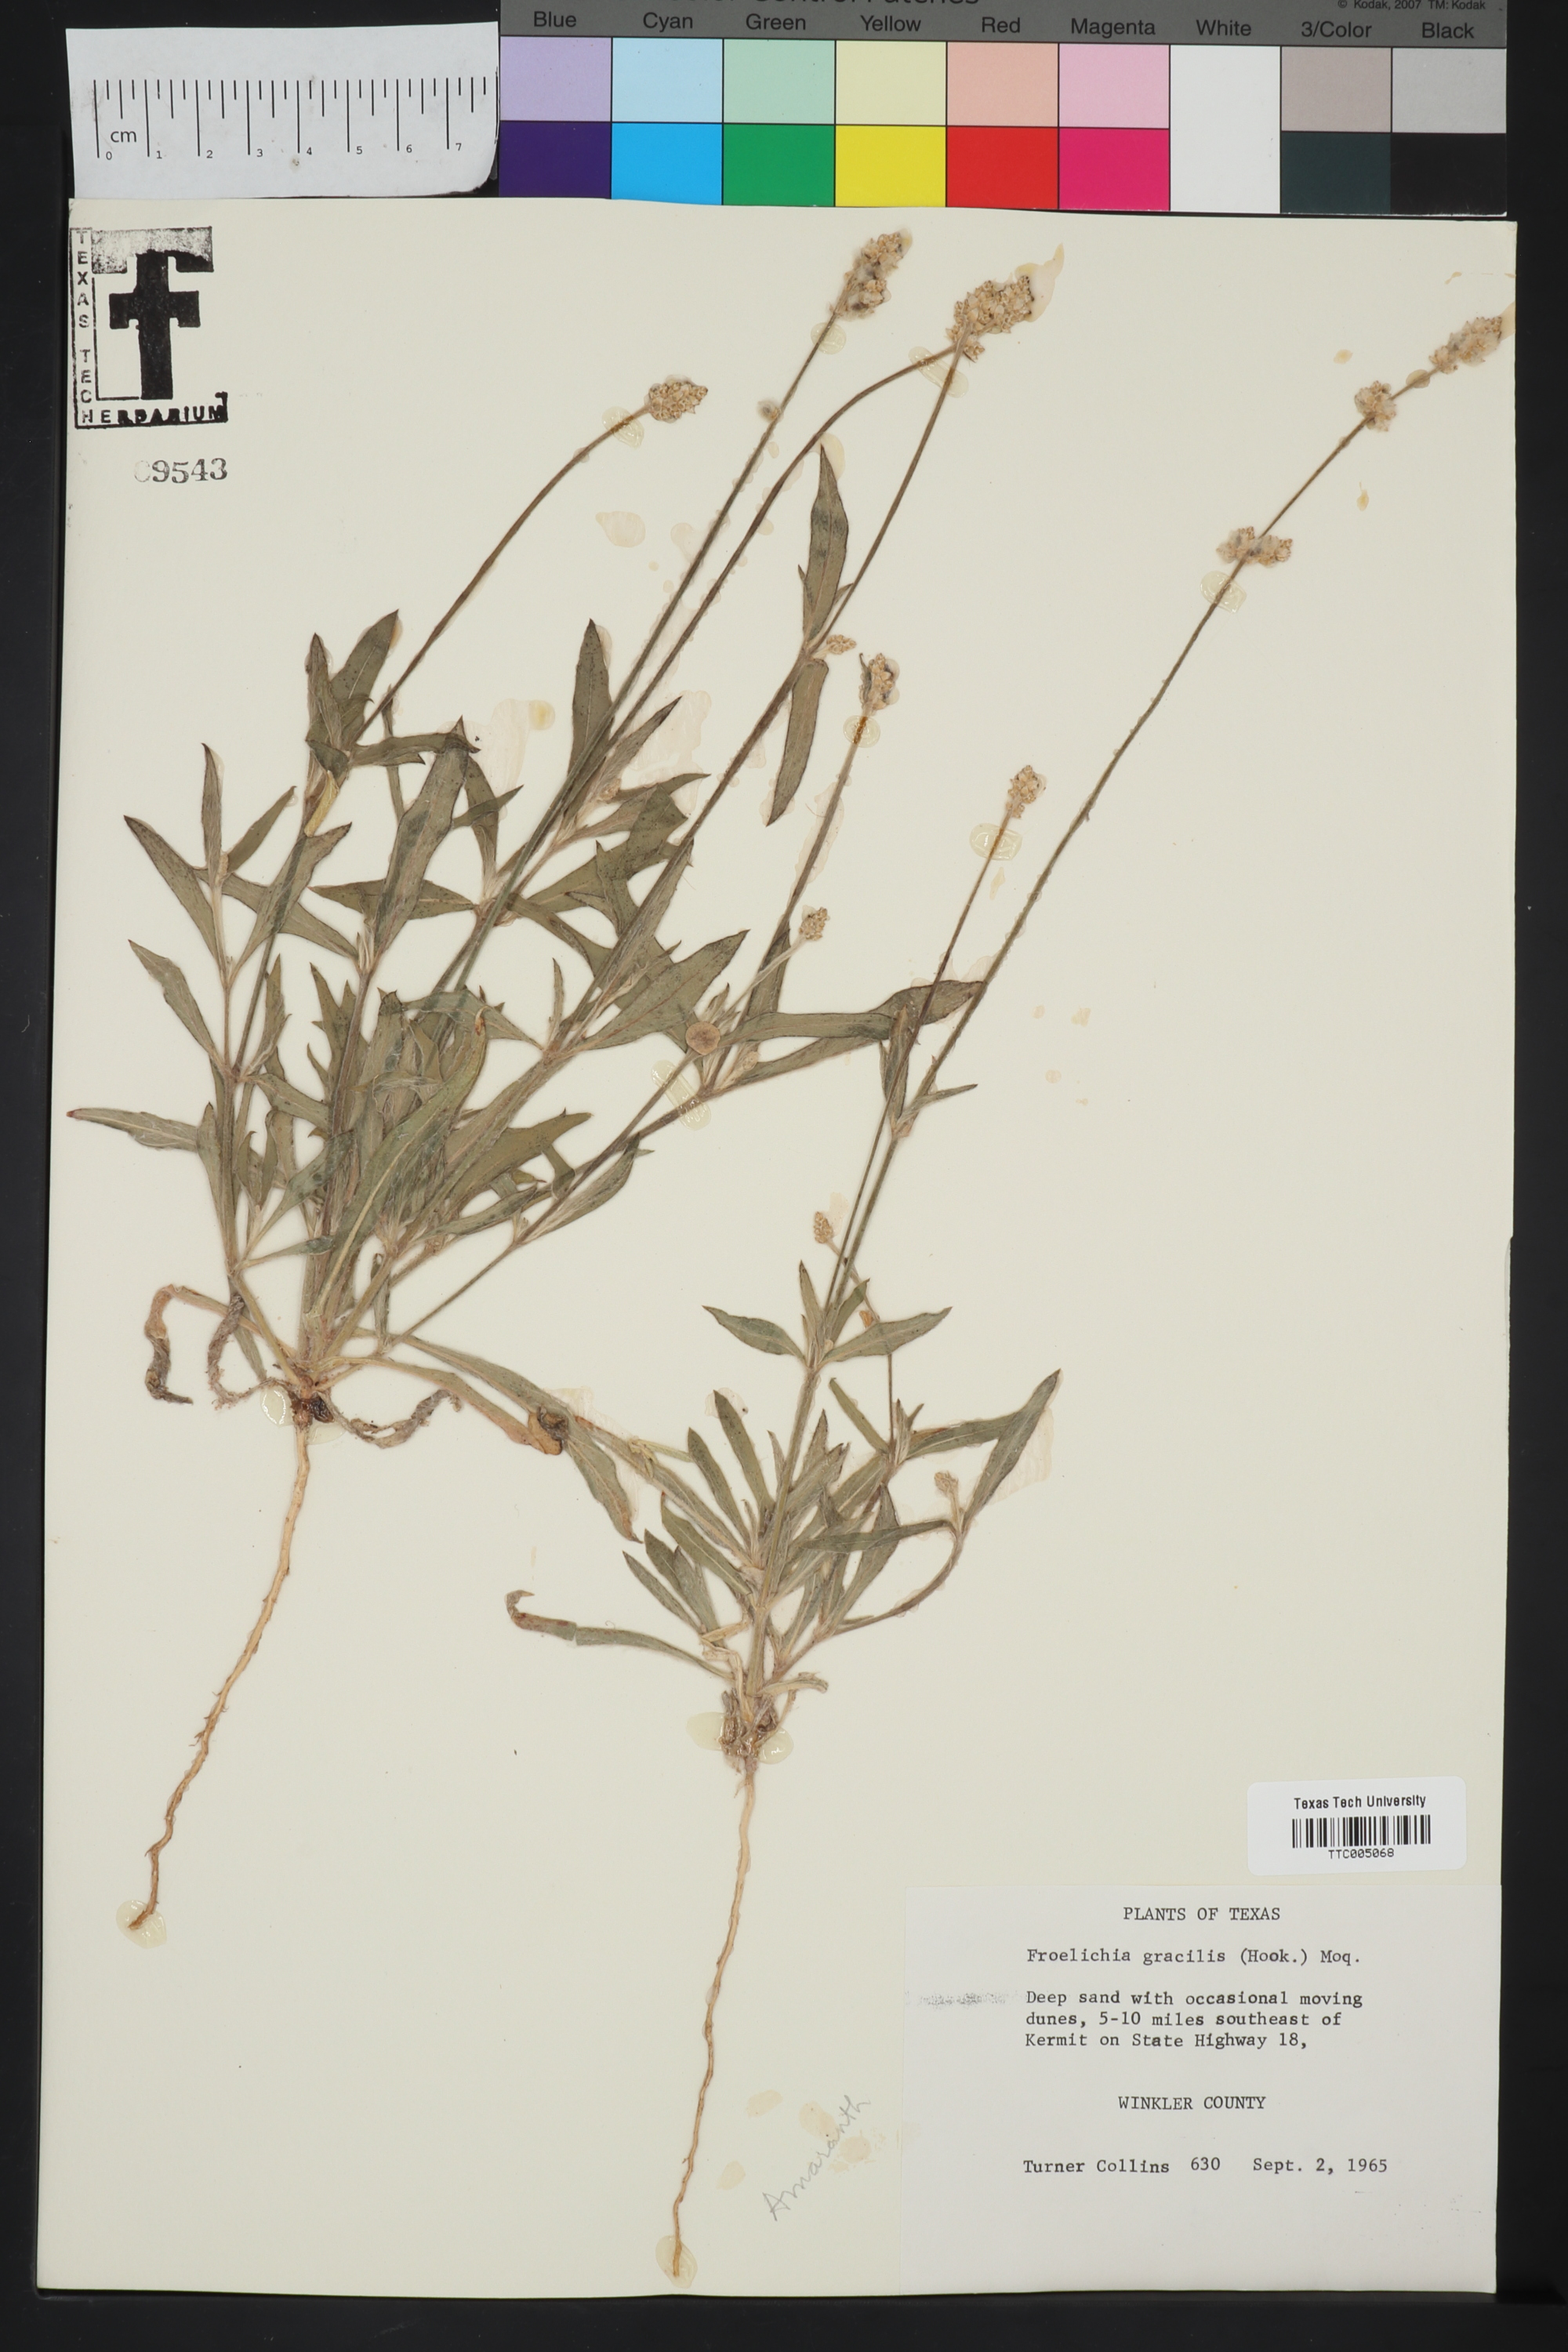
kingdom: Plantae
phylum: Tracheophyta
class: Magnoliopsida
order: Caryophyllales
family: Amaranthaceae
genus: Froelichia
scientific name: Froelichia gracilis
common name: Slender cottonweed
